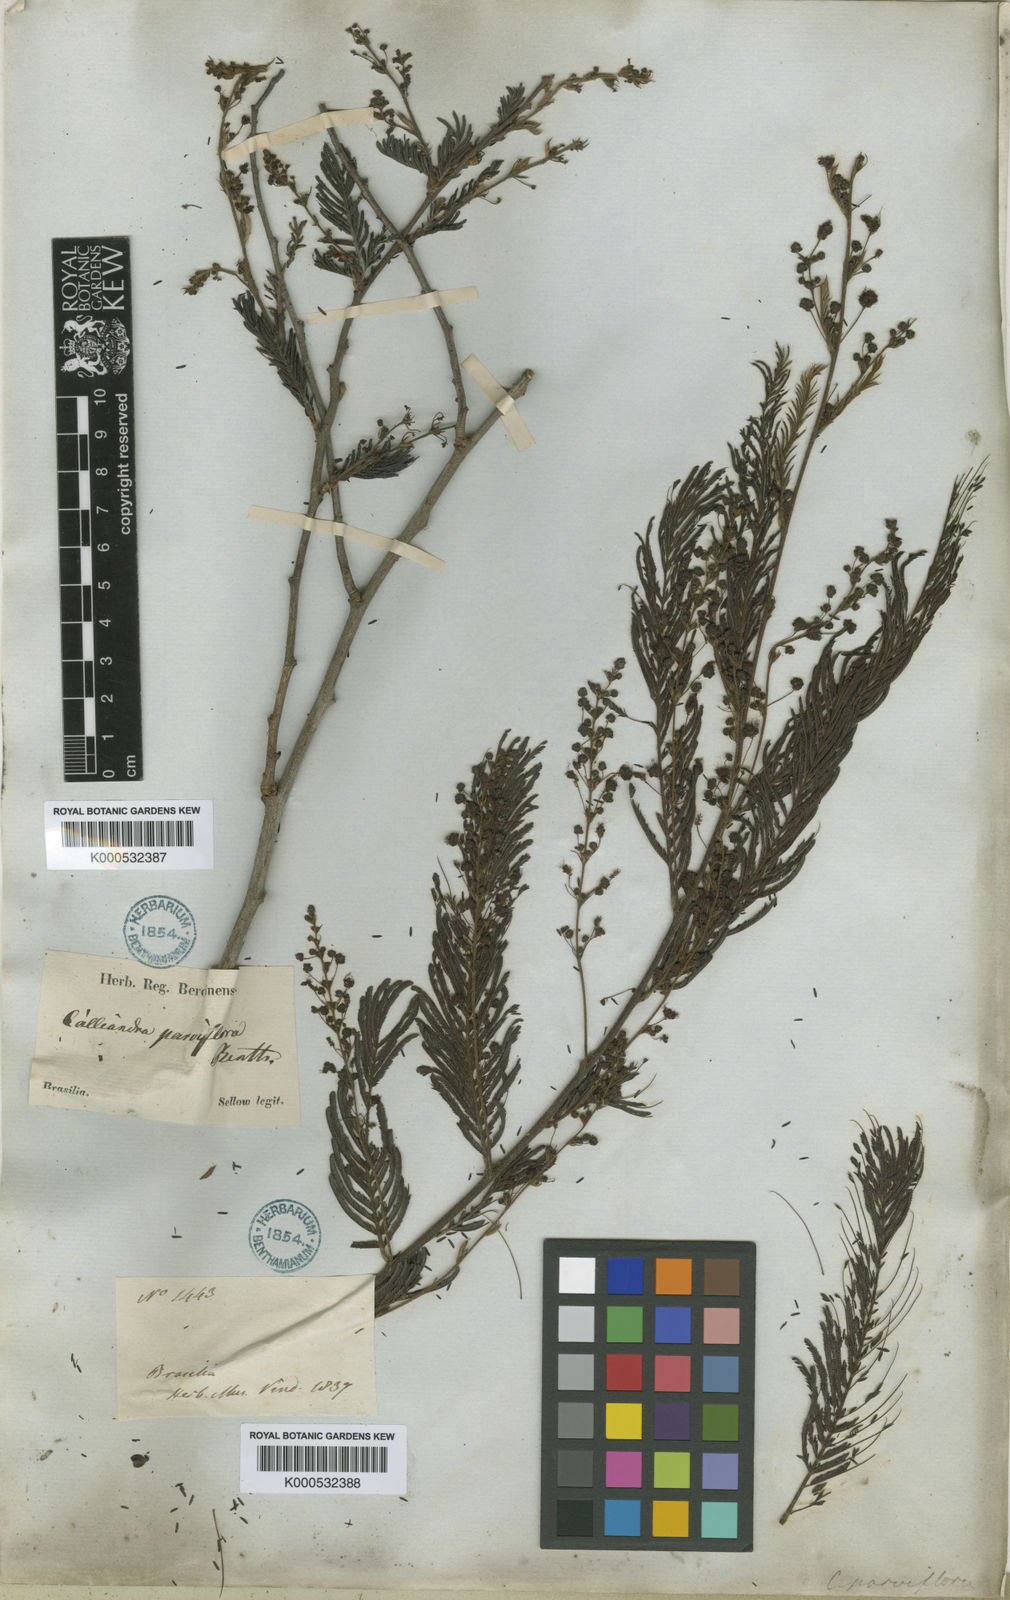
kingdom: Plantae
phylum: Tracheophyta
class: Magnoliopsida
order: Fabales
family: Fabaceae
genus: Calliandra
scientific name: Calliandra parviflora
